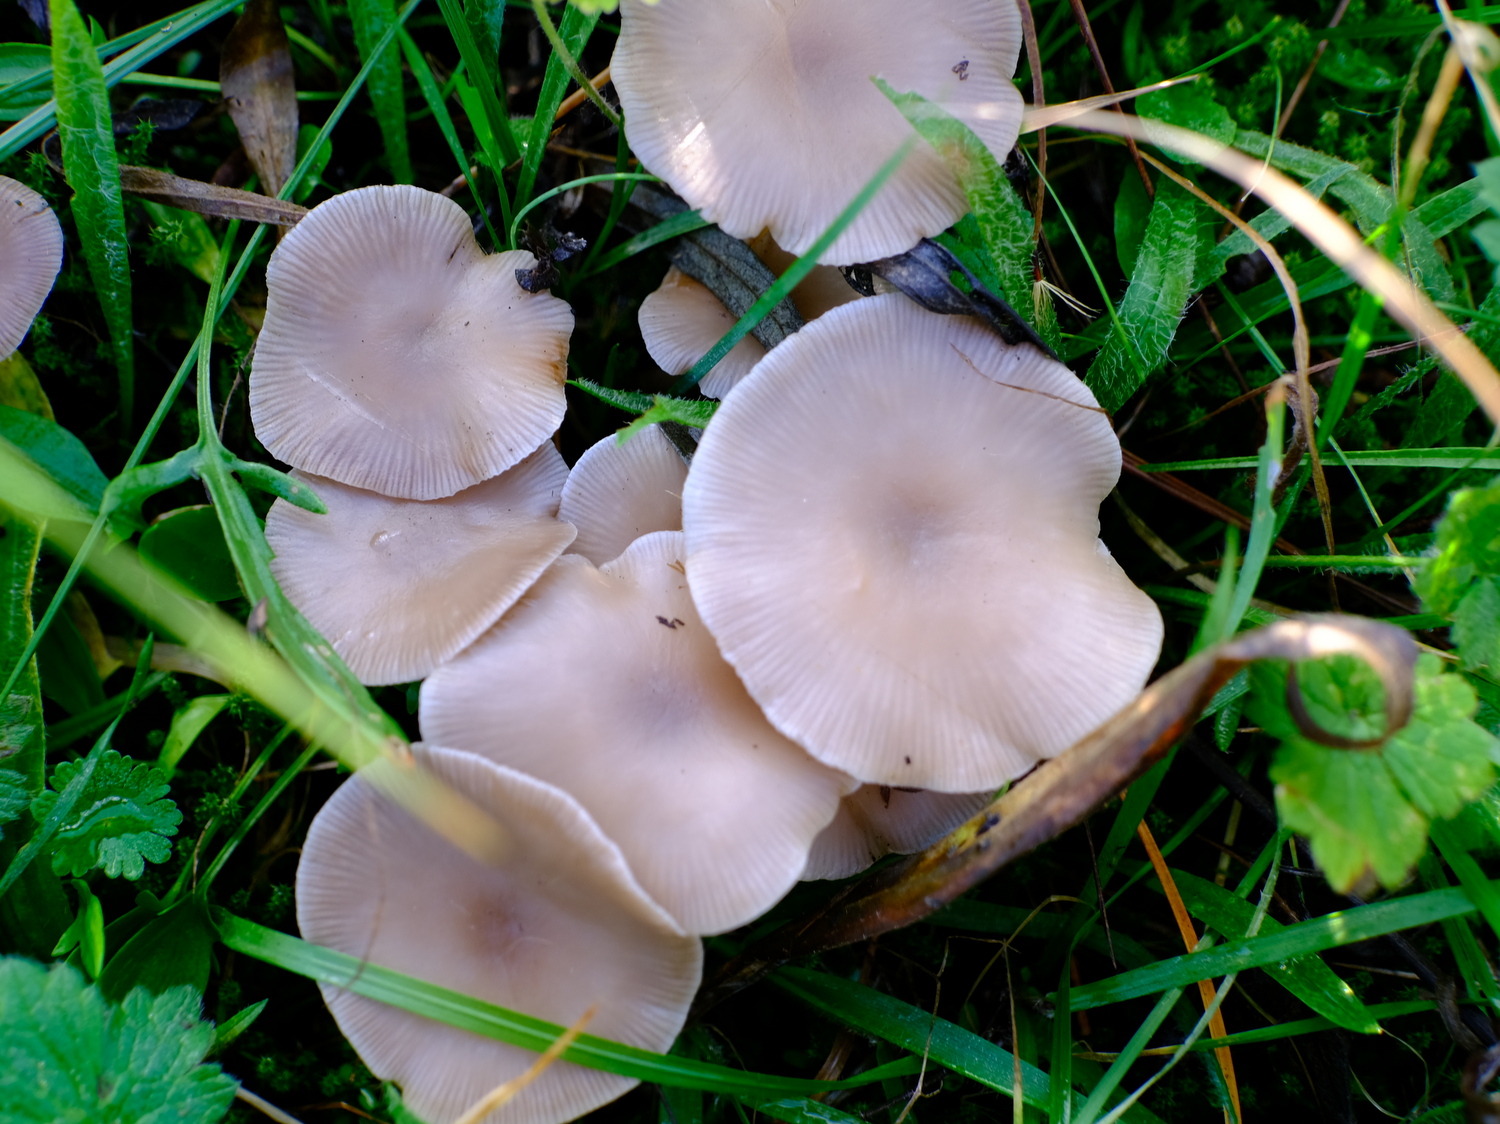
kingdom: Fungi
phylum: Basidiomycota
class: Agaricomycetes
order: Agaricales
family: Tricholomataceae
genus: Clitocybe
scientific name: Clitocybe
